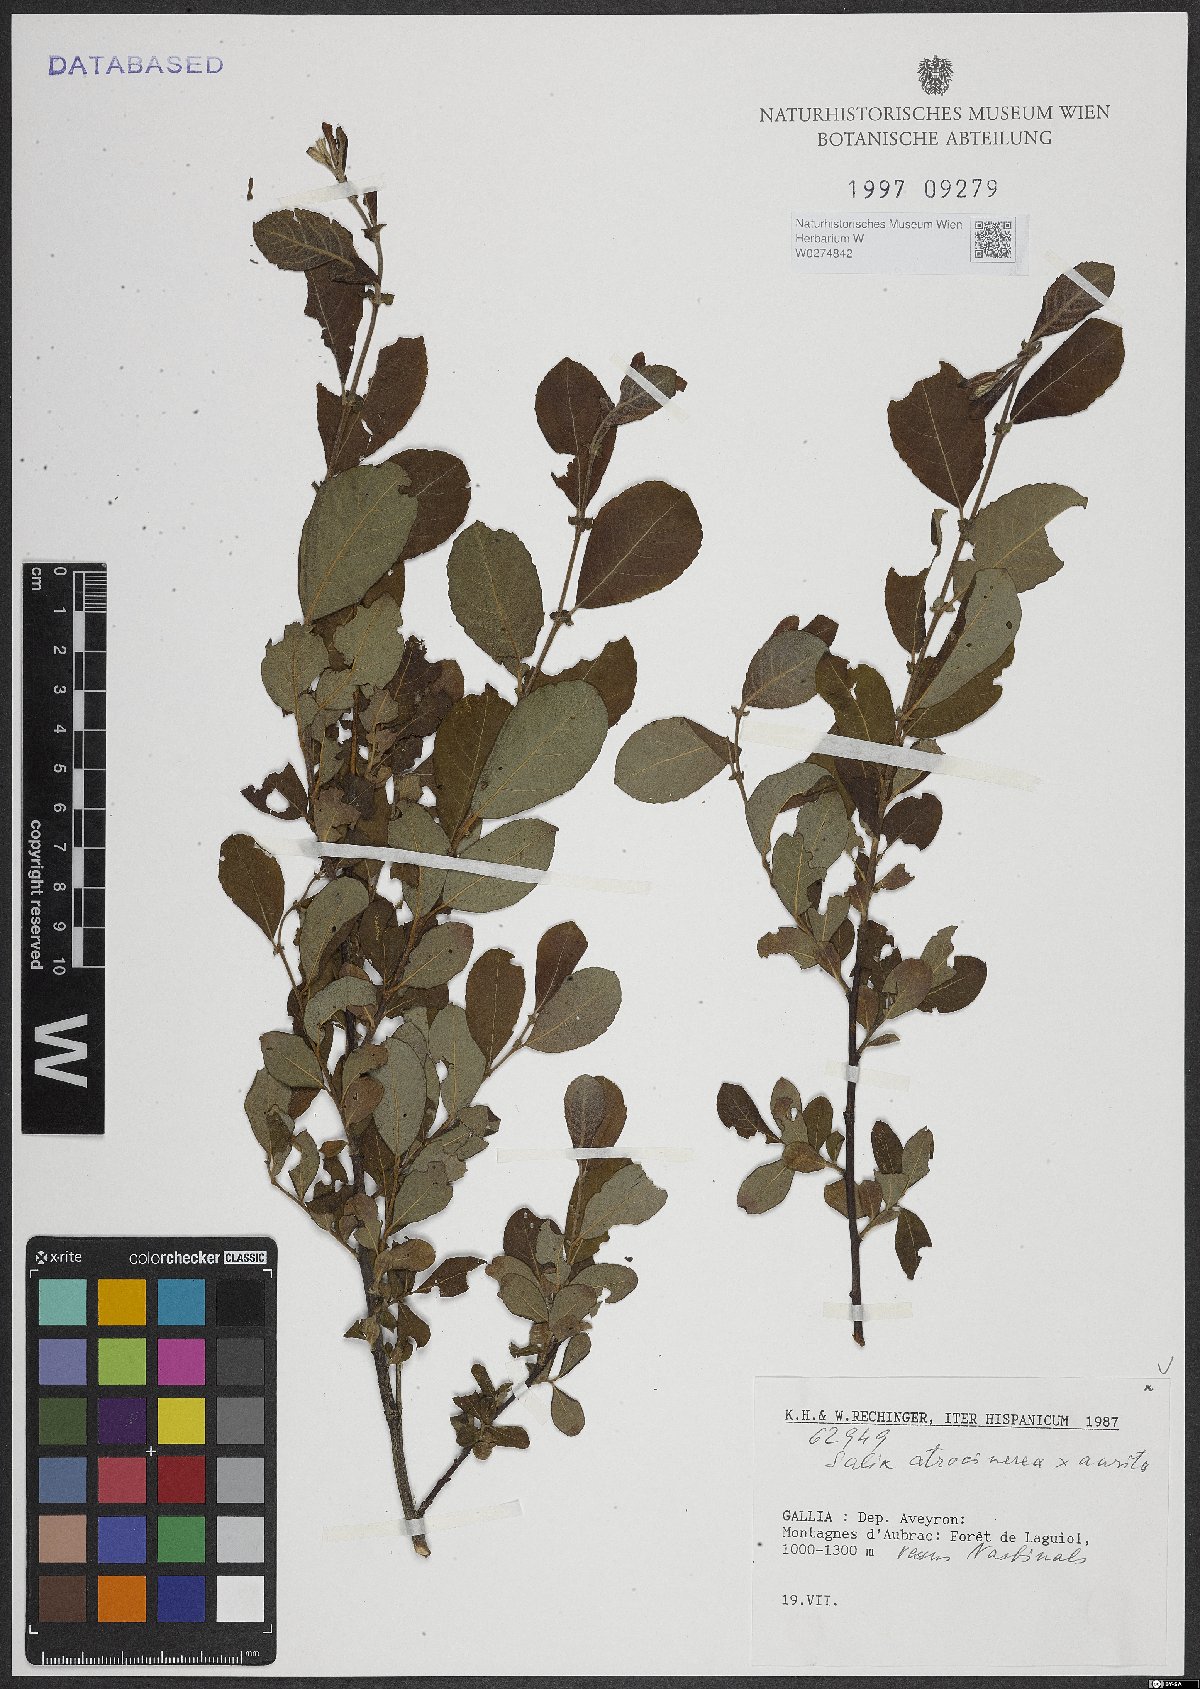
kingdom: Plantae
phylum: Tracheophyta
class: Magnoliopsida
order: Malpighiales
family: Salicaceae
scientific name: Salicaceae
